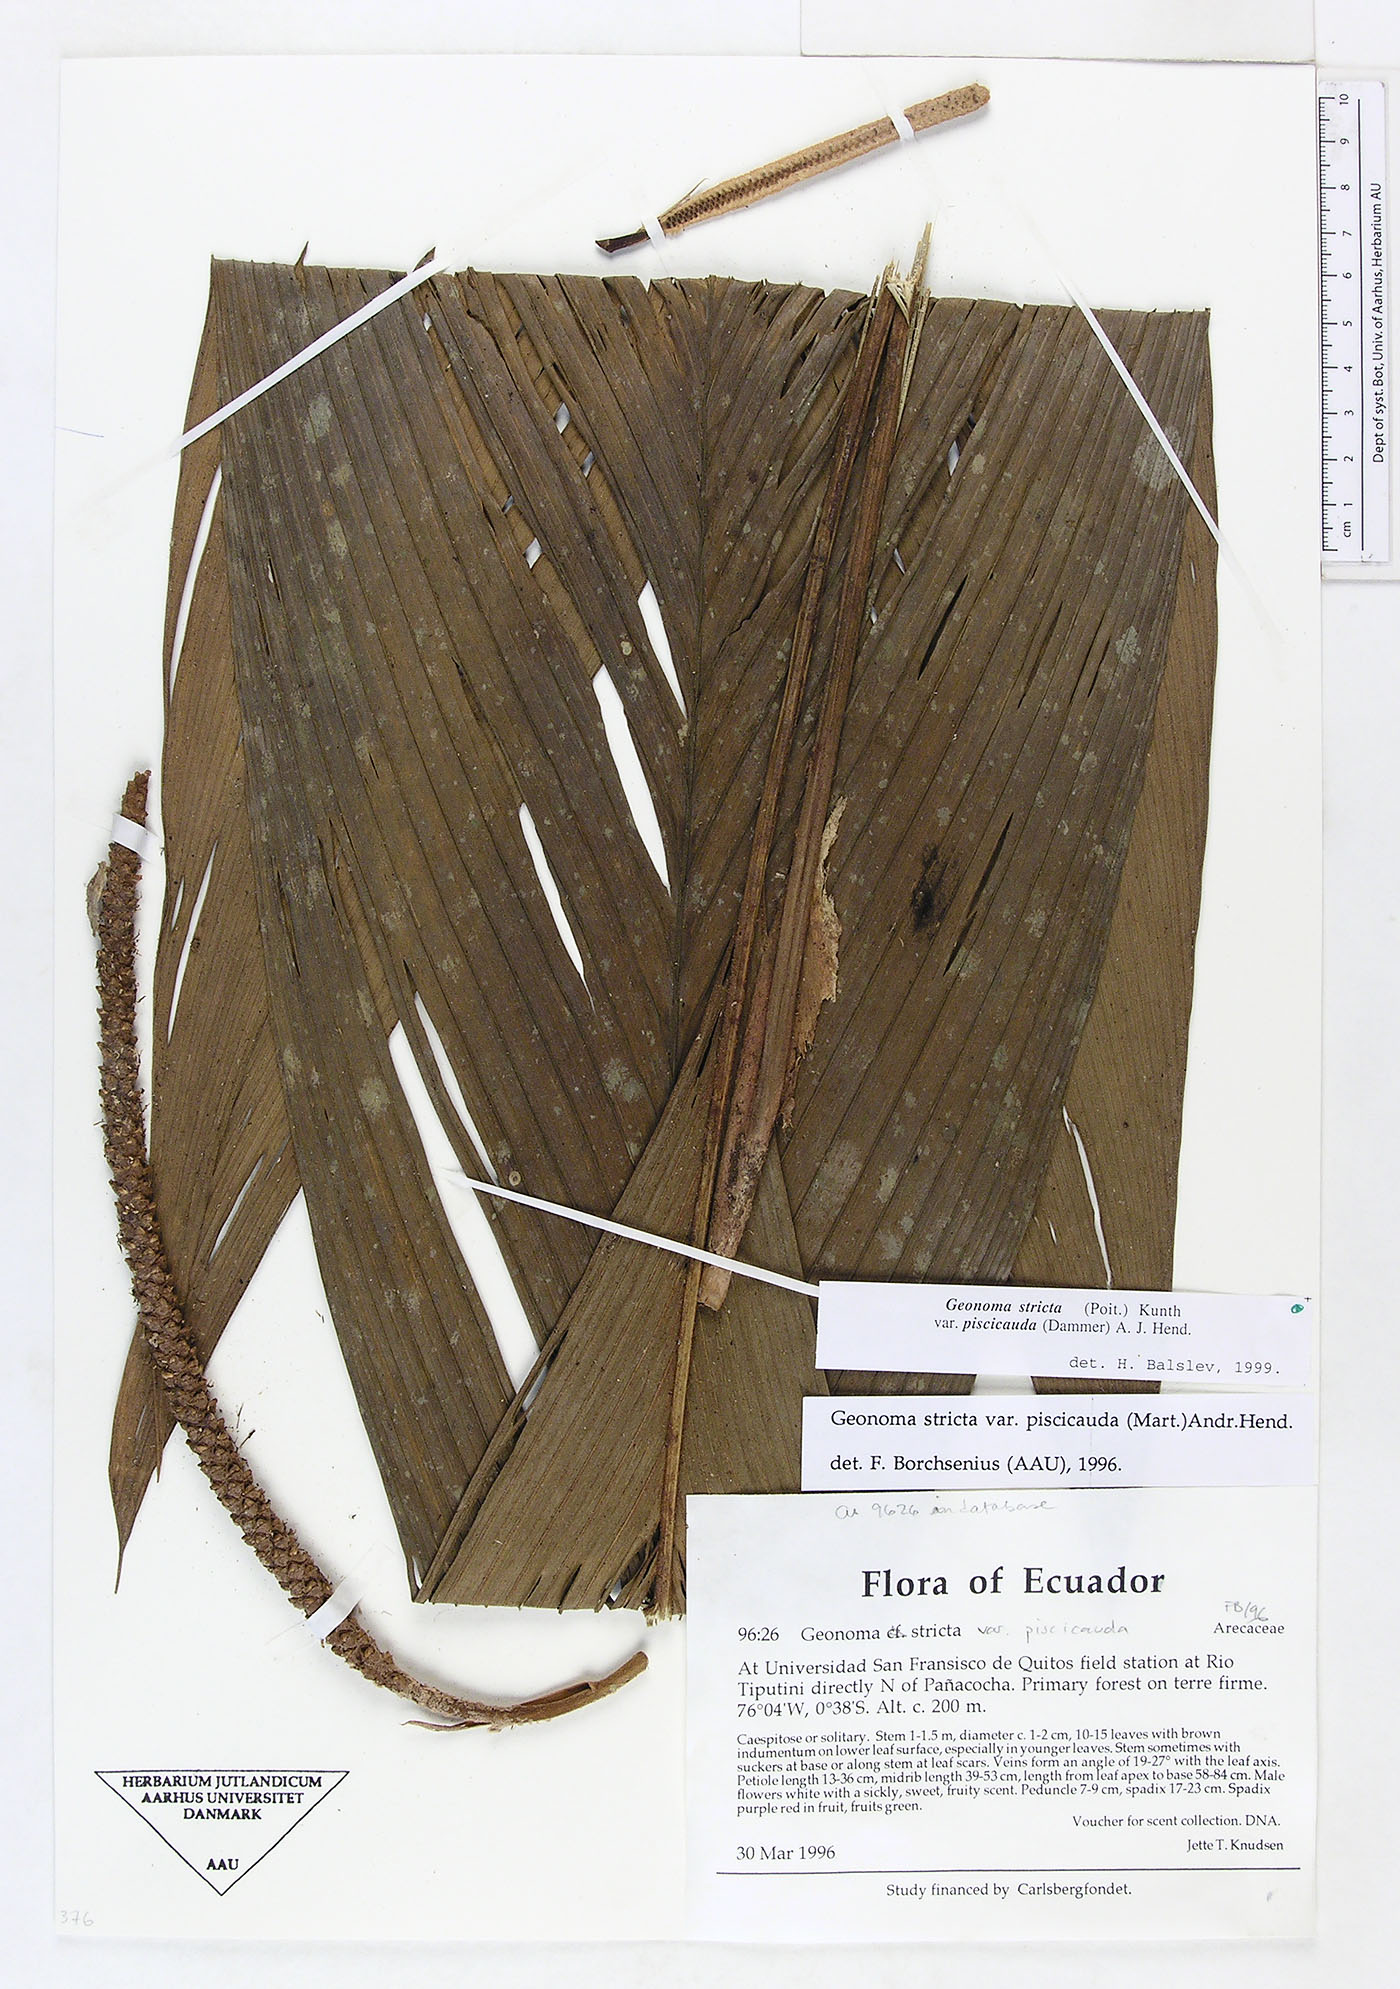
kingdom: Plantae
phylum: Tracheophyta
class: Liliopsida
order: Arecales
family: Arecaceae
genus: Geonoma
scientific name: Geonoma stricta
